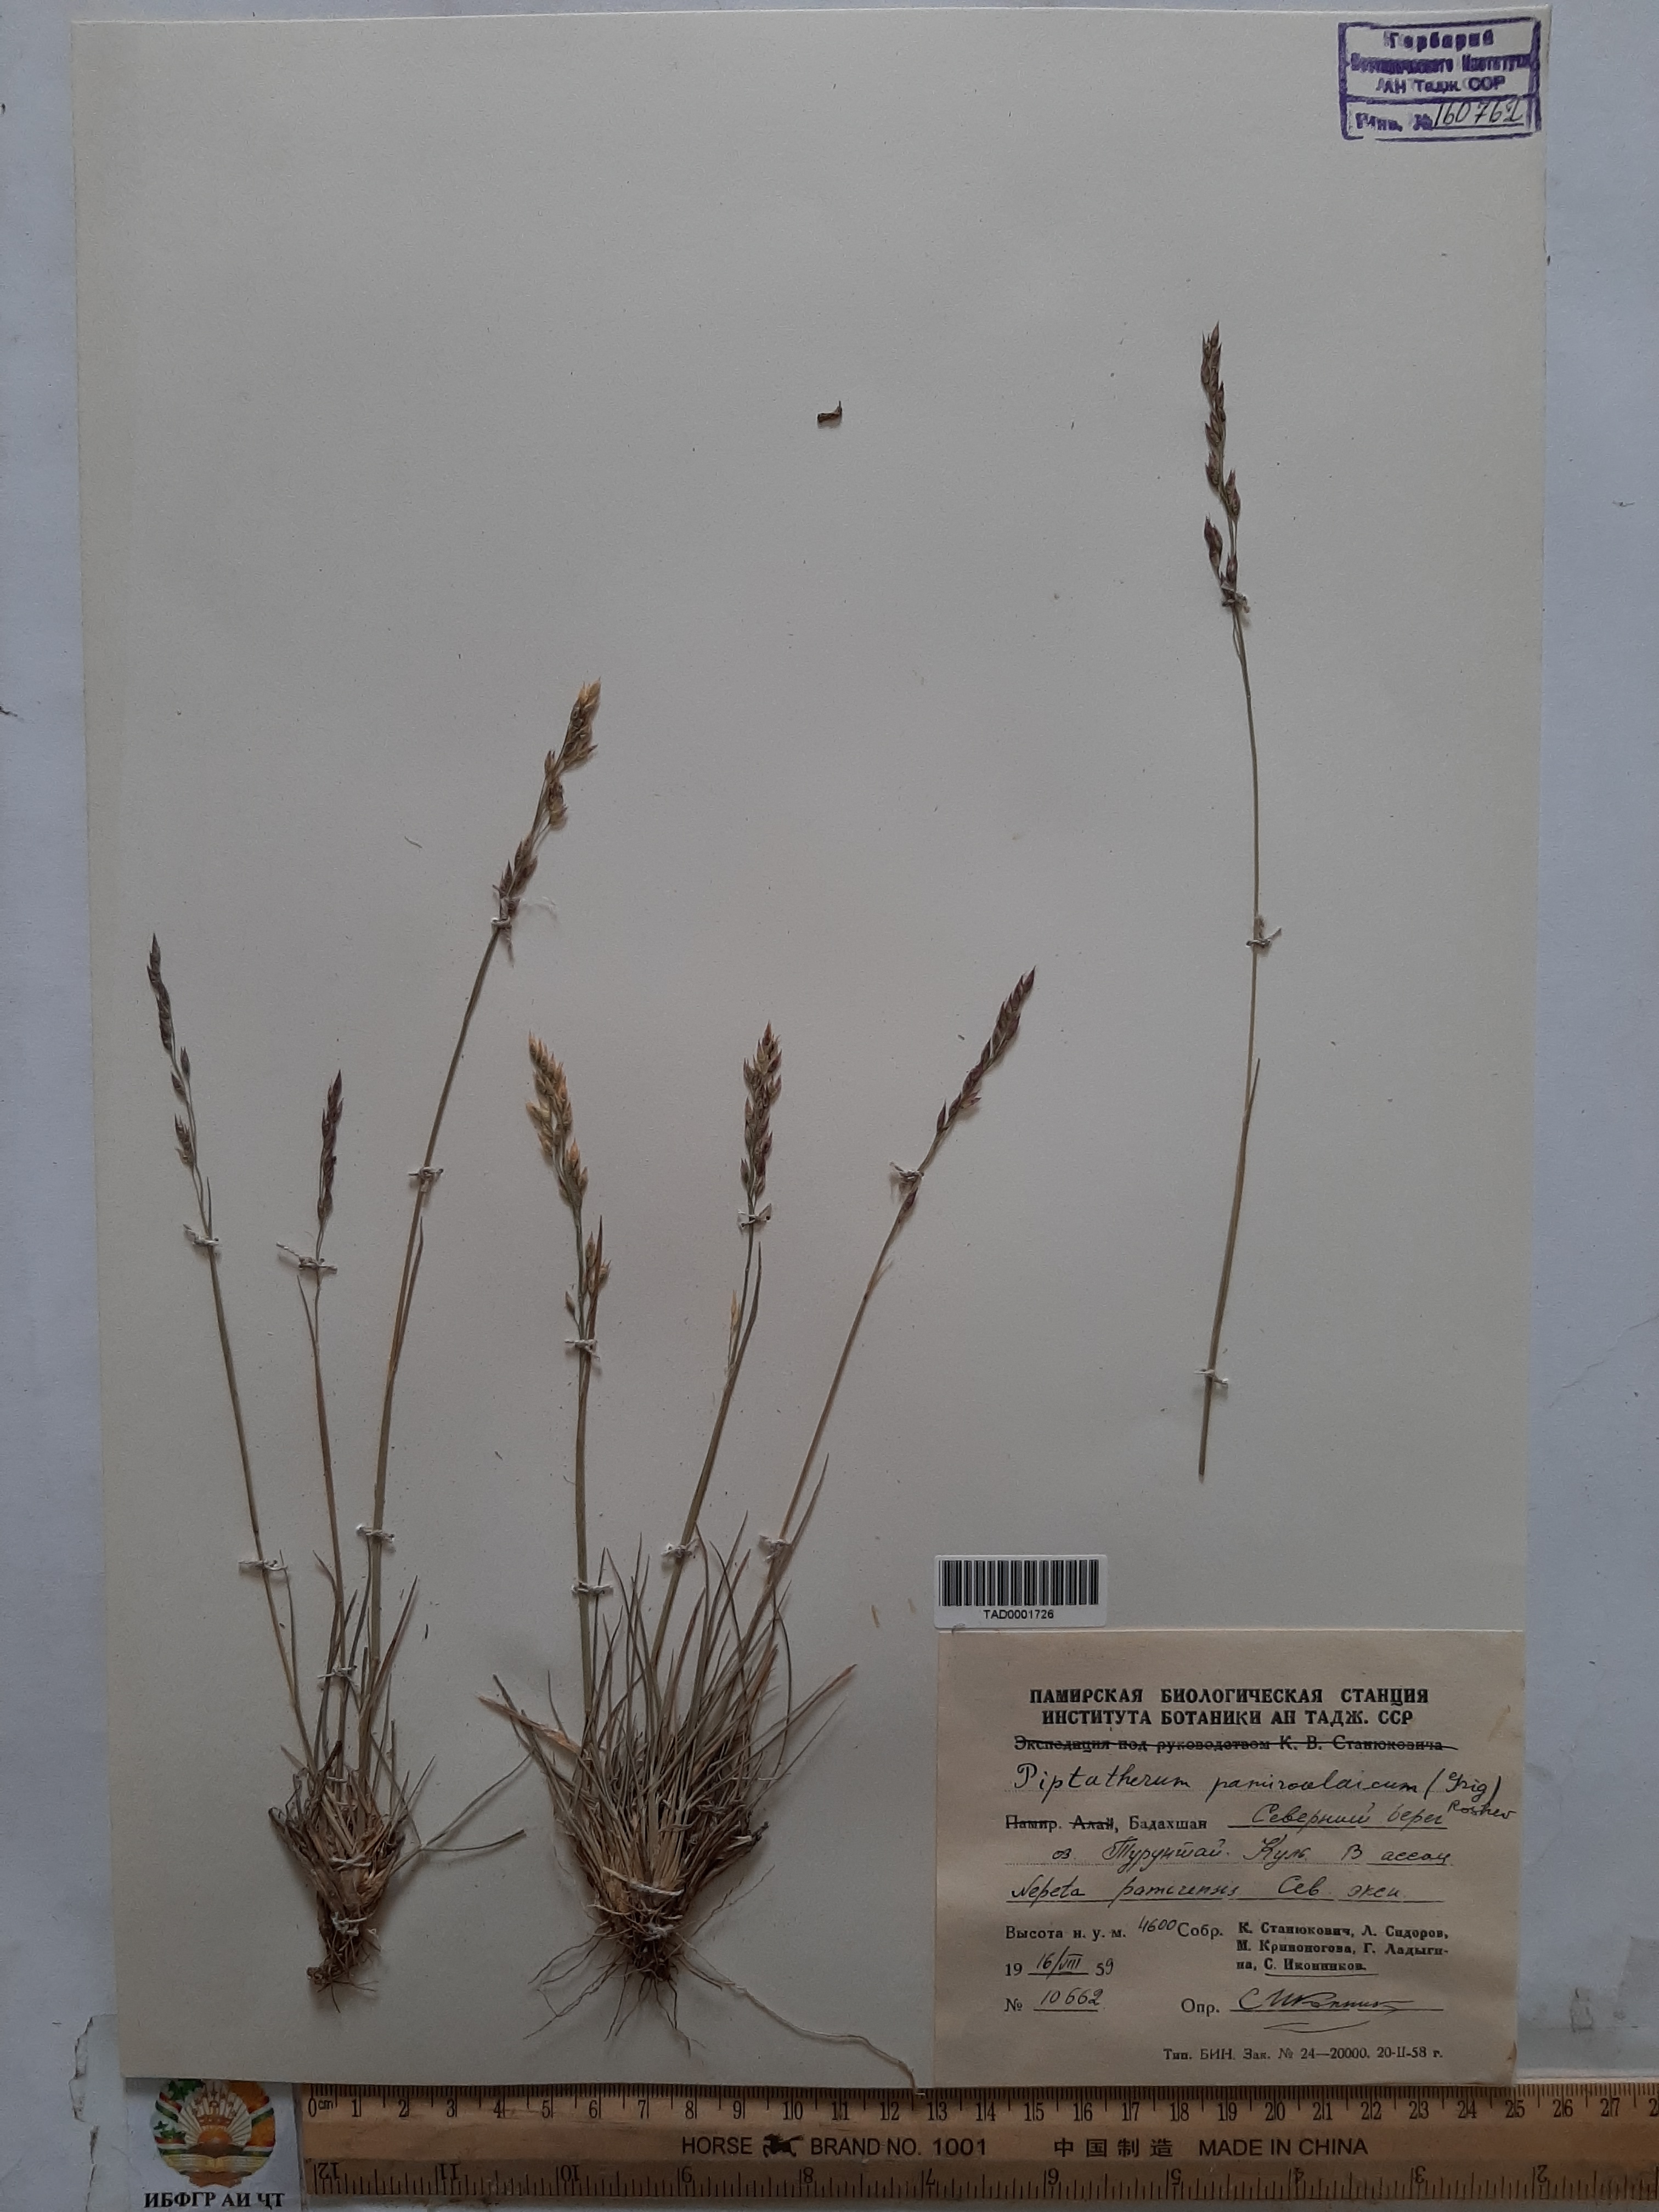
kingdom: Plantae
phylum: Tracheophyta
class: Liliopsida
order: Poales
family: Poaceae
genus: Piptatherum
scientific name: Piptatherum pamiralaicum
